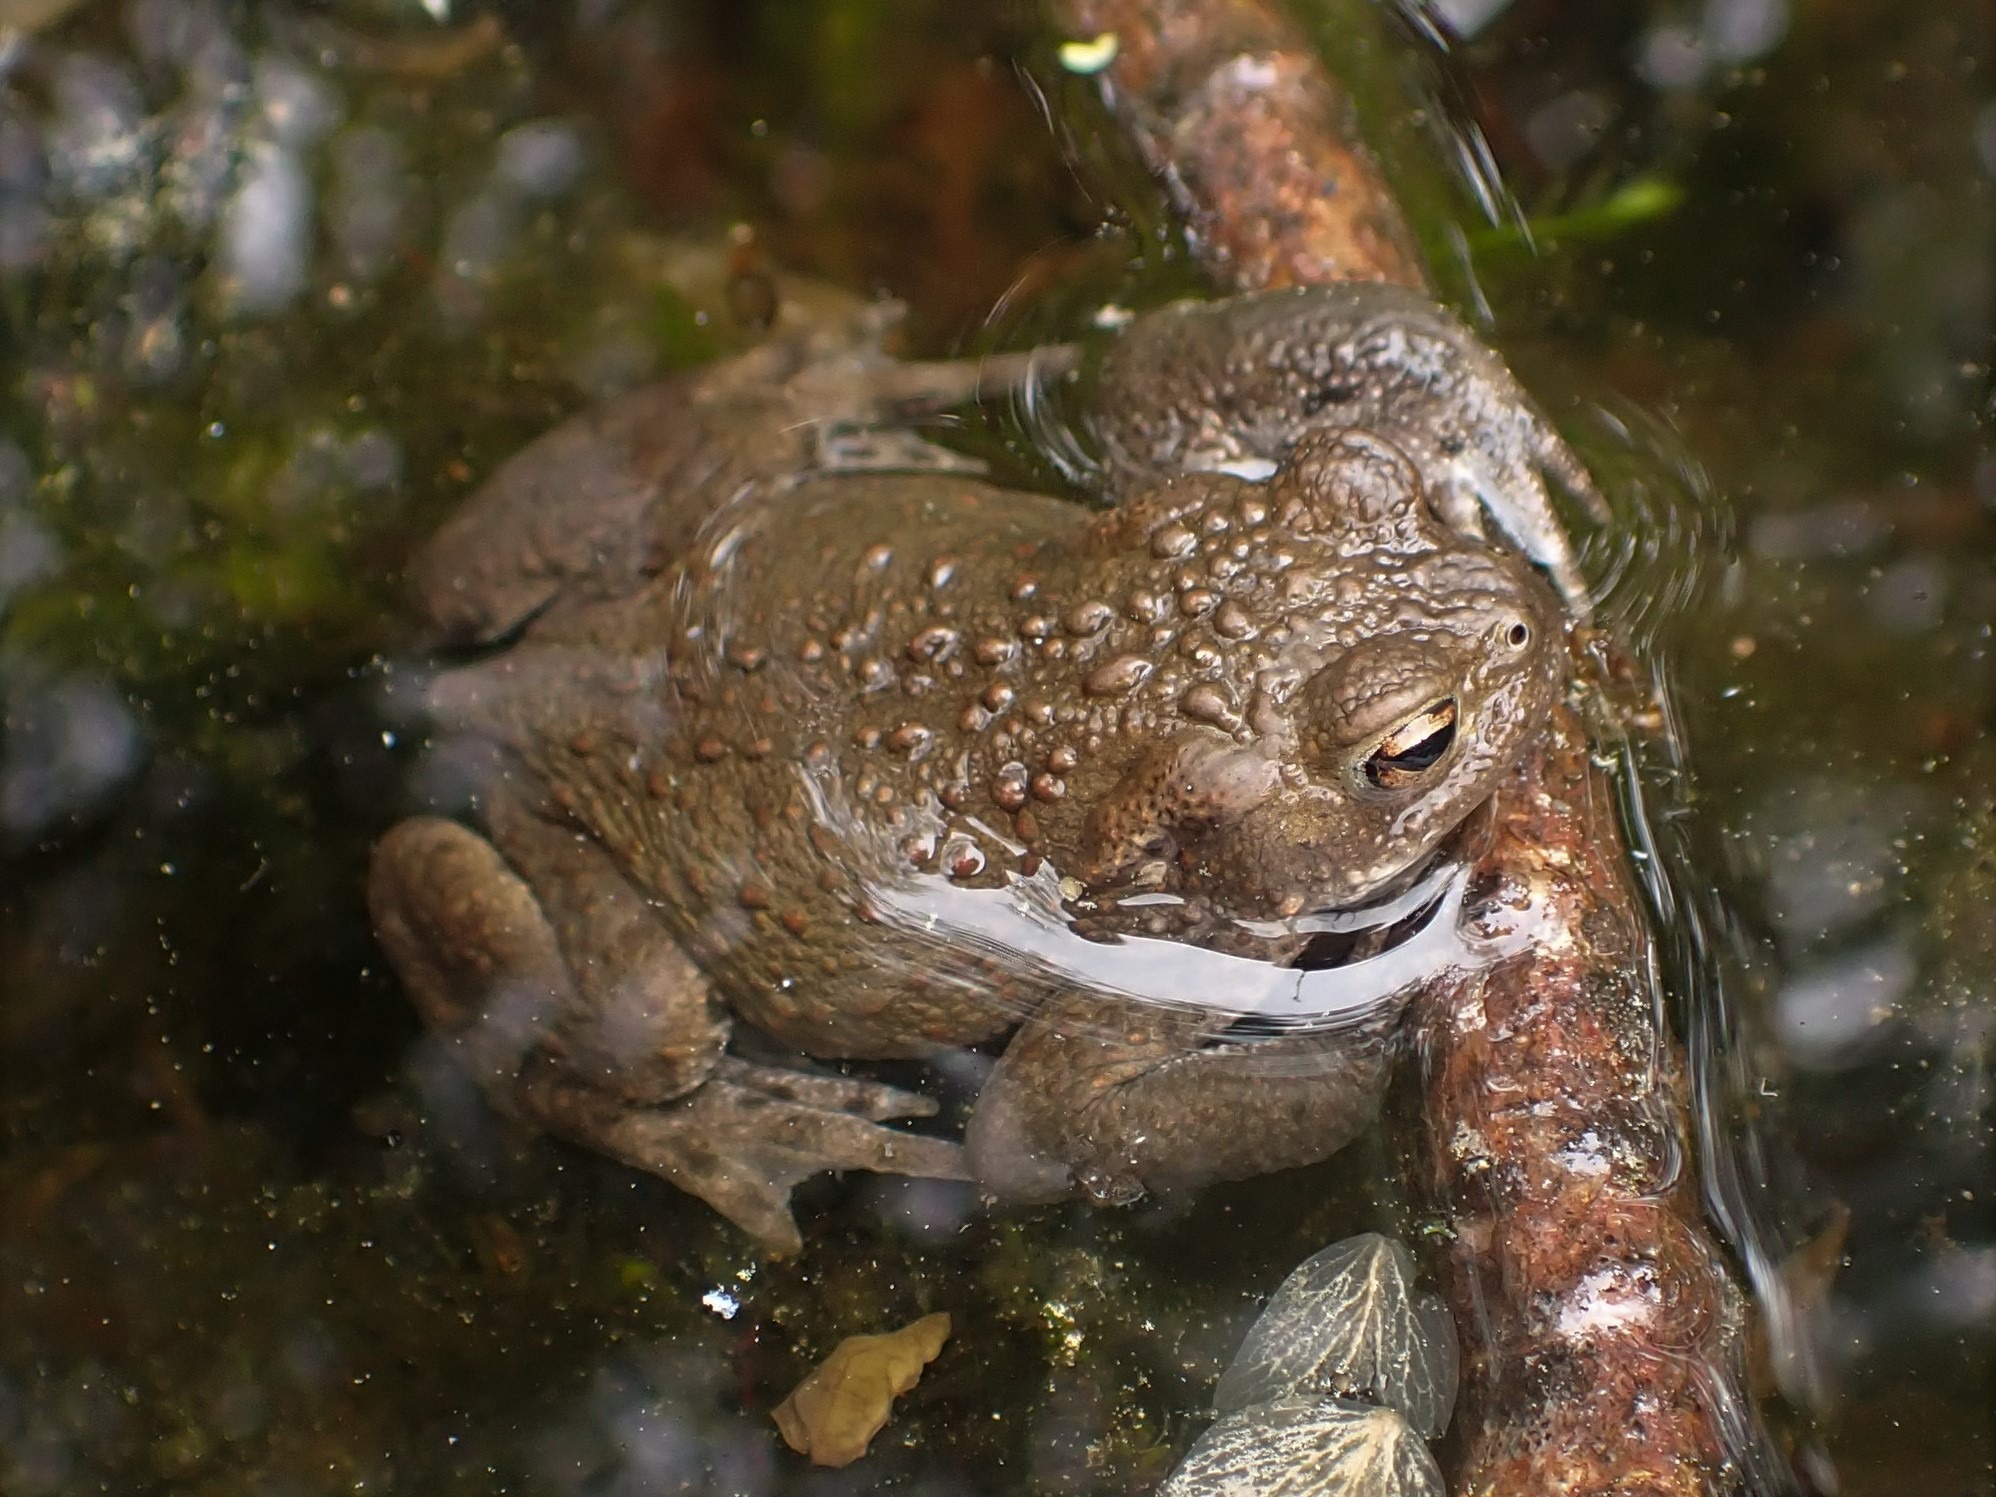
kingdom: Animalia
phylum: Chordata
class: Amphibia
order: Anura
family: Bufonidae
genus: Bufo
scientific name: Bufo bufo
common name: Skrubtudse
